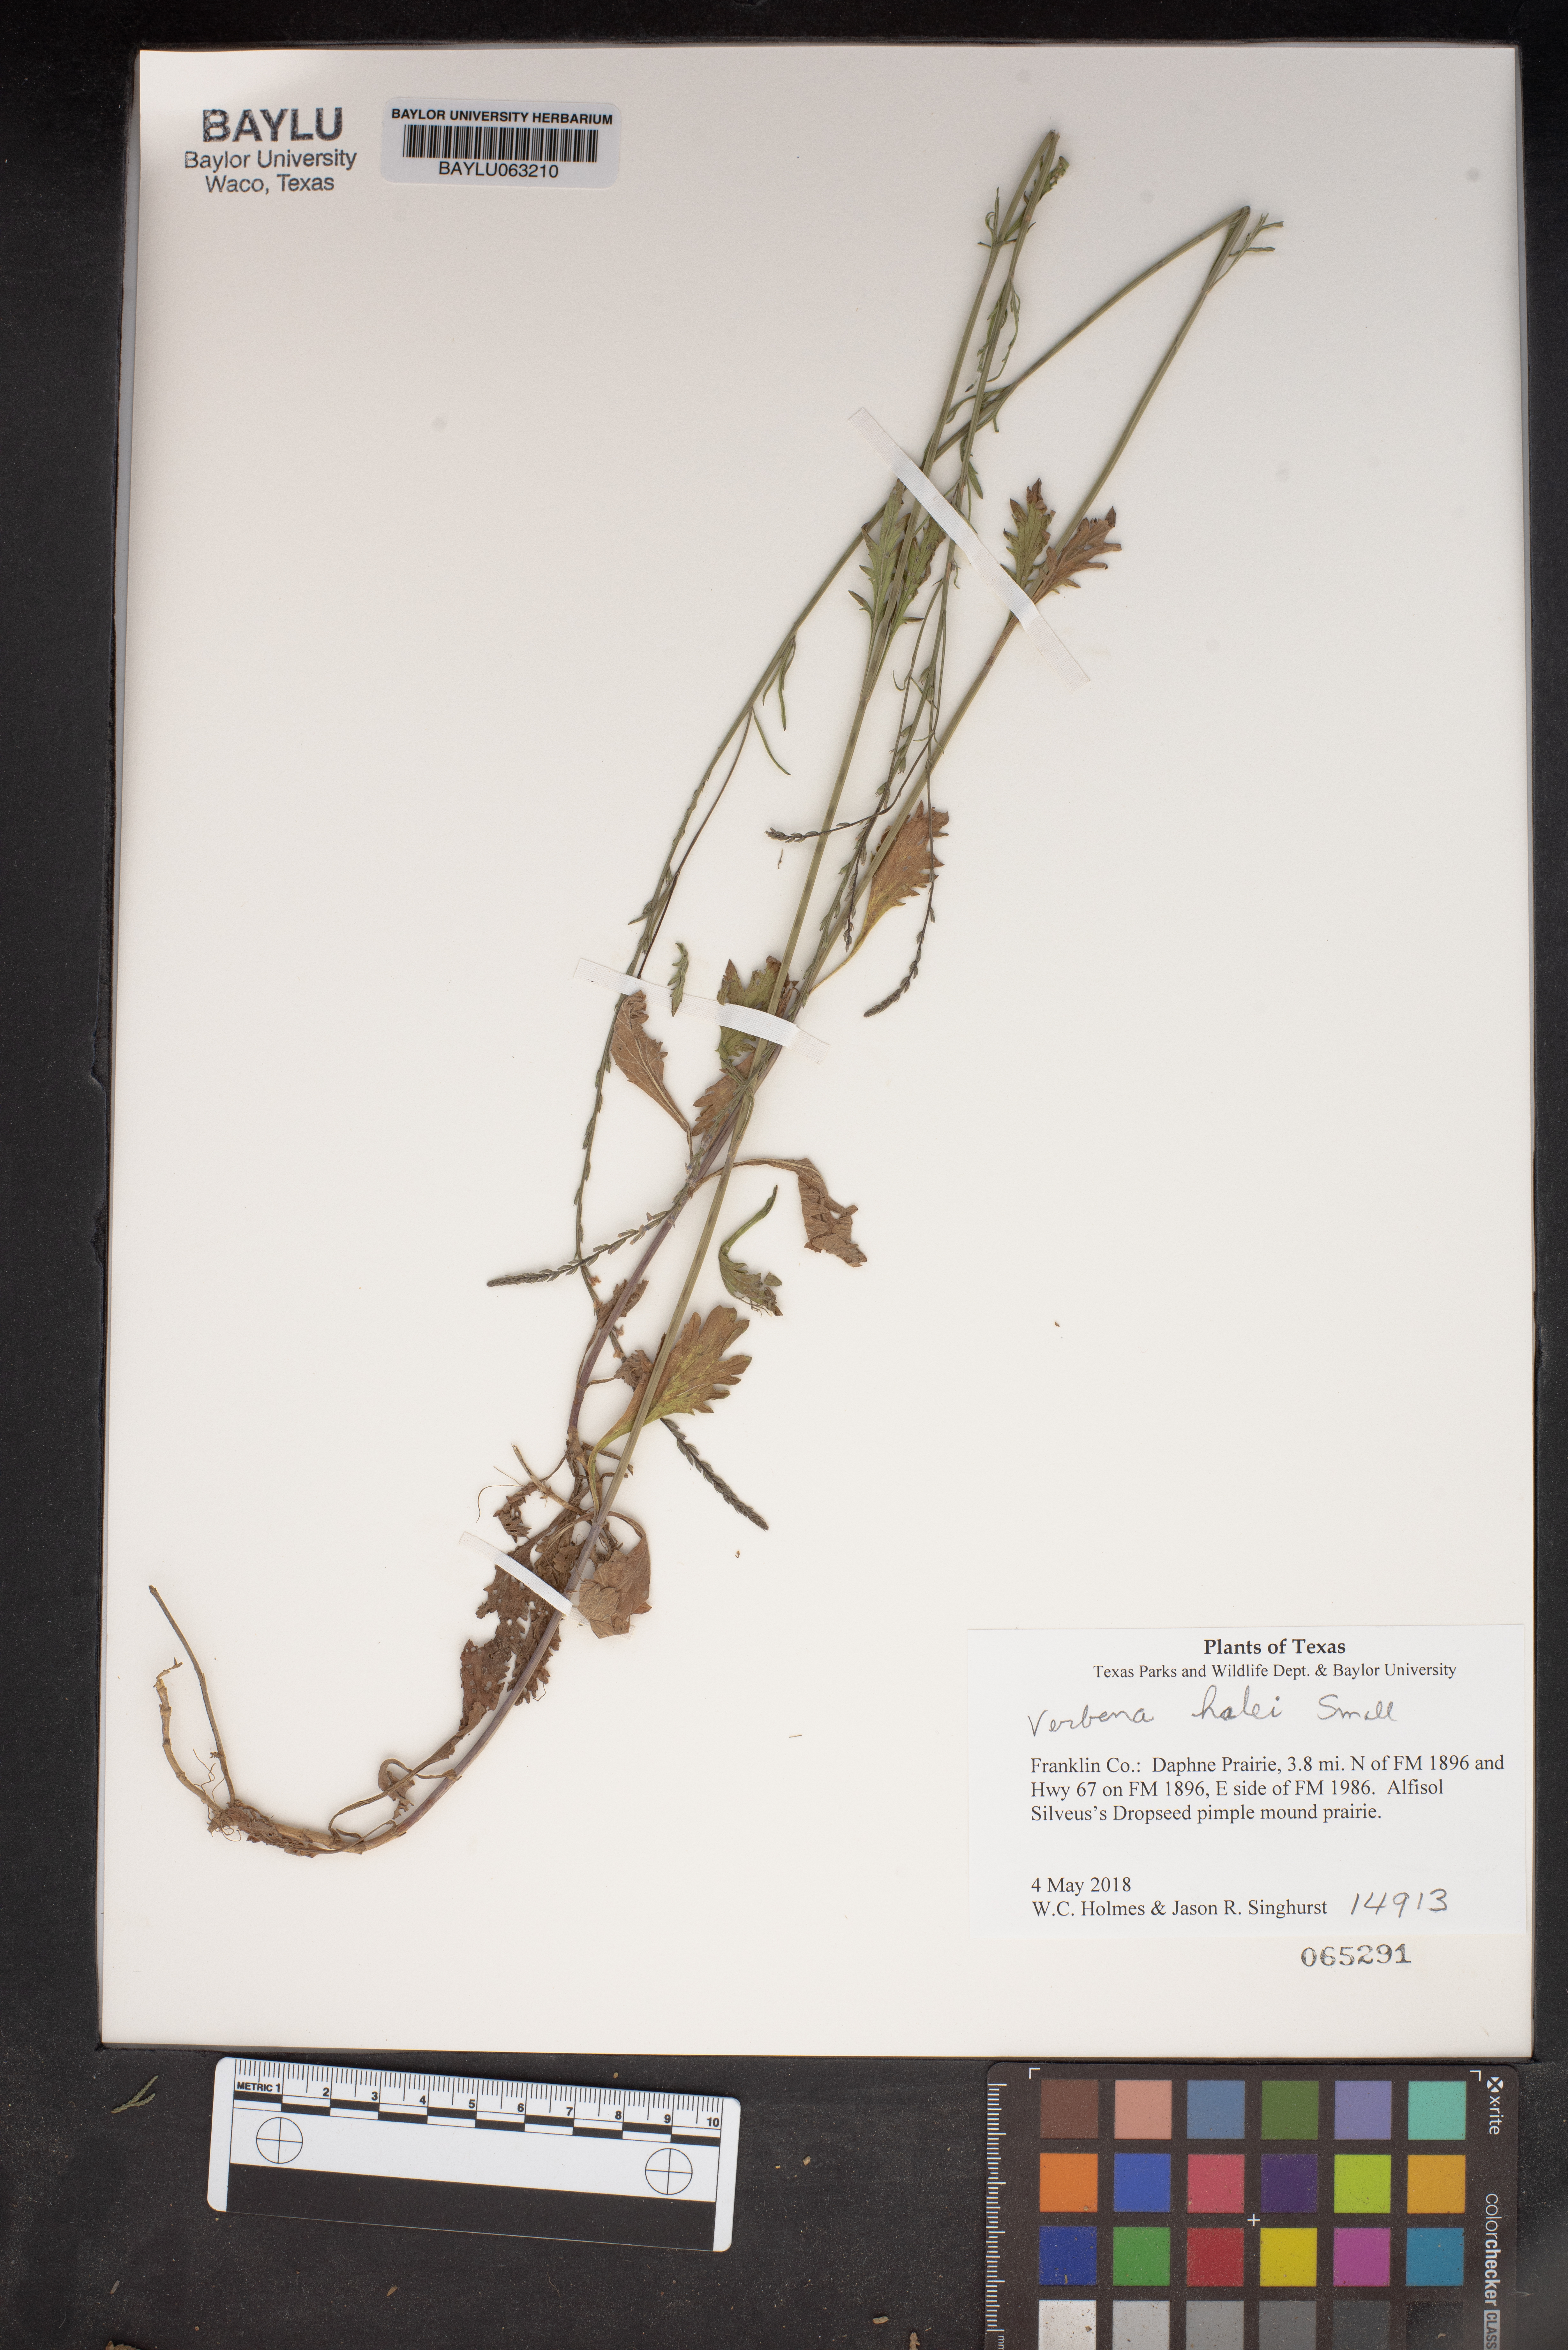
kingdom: Plantae
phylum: Tracheophyta
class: Magnoliopsida
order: Lamiales
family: Verbenaceae
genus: Verbena
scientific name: Verbena halei
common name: Texas vervain
